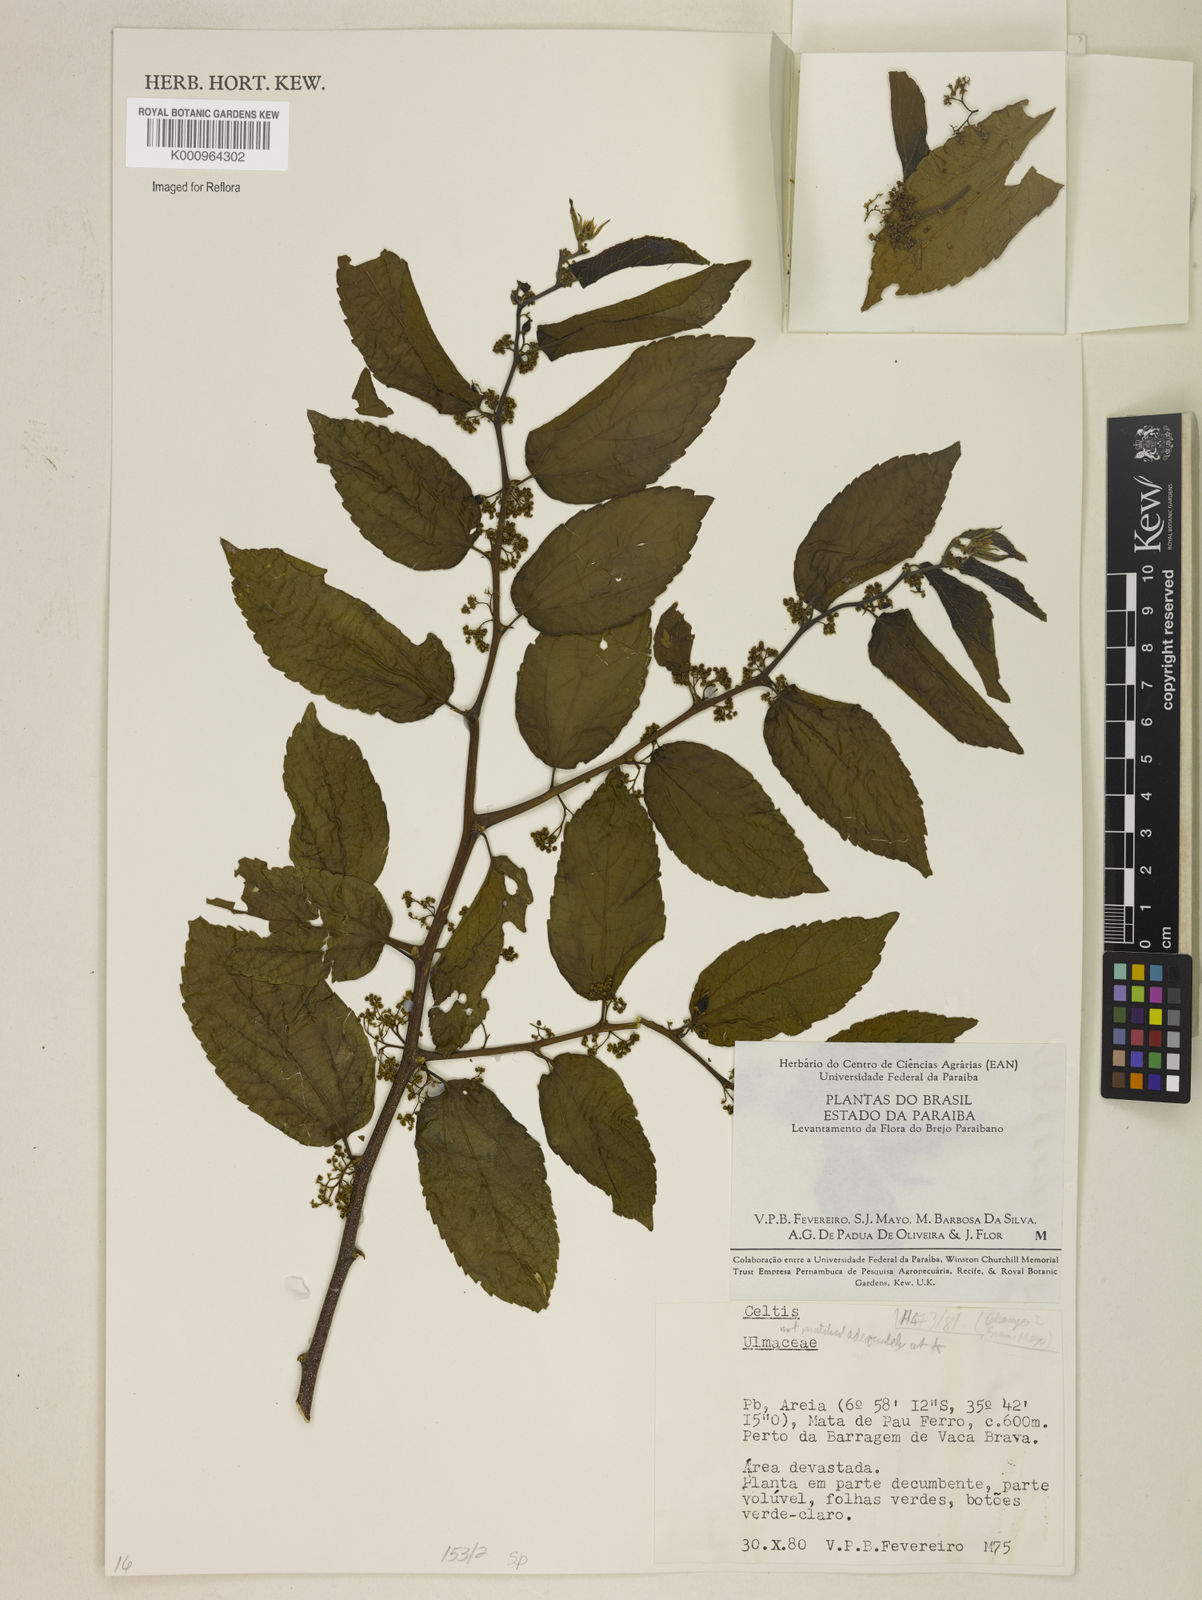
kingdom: Plantae
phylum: Tracheophyta
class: Magnoliopsida
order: Rosales
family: Cannabaceae
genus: Celtis
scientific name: Celtis
